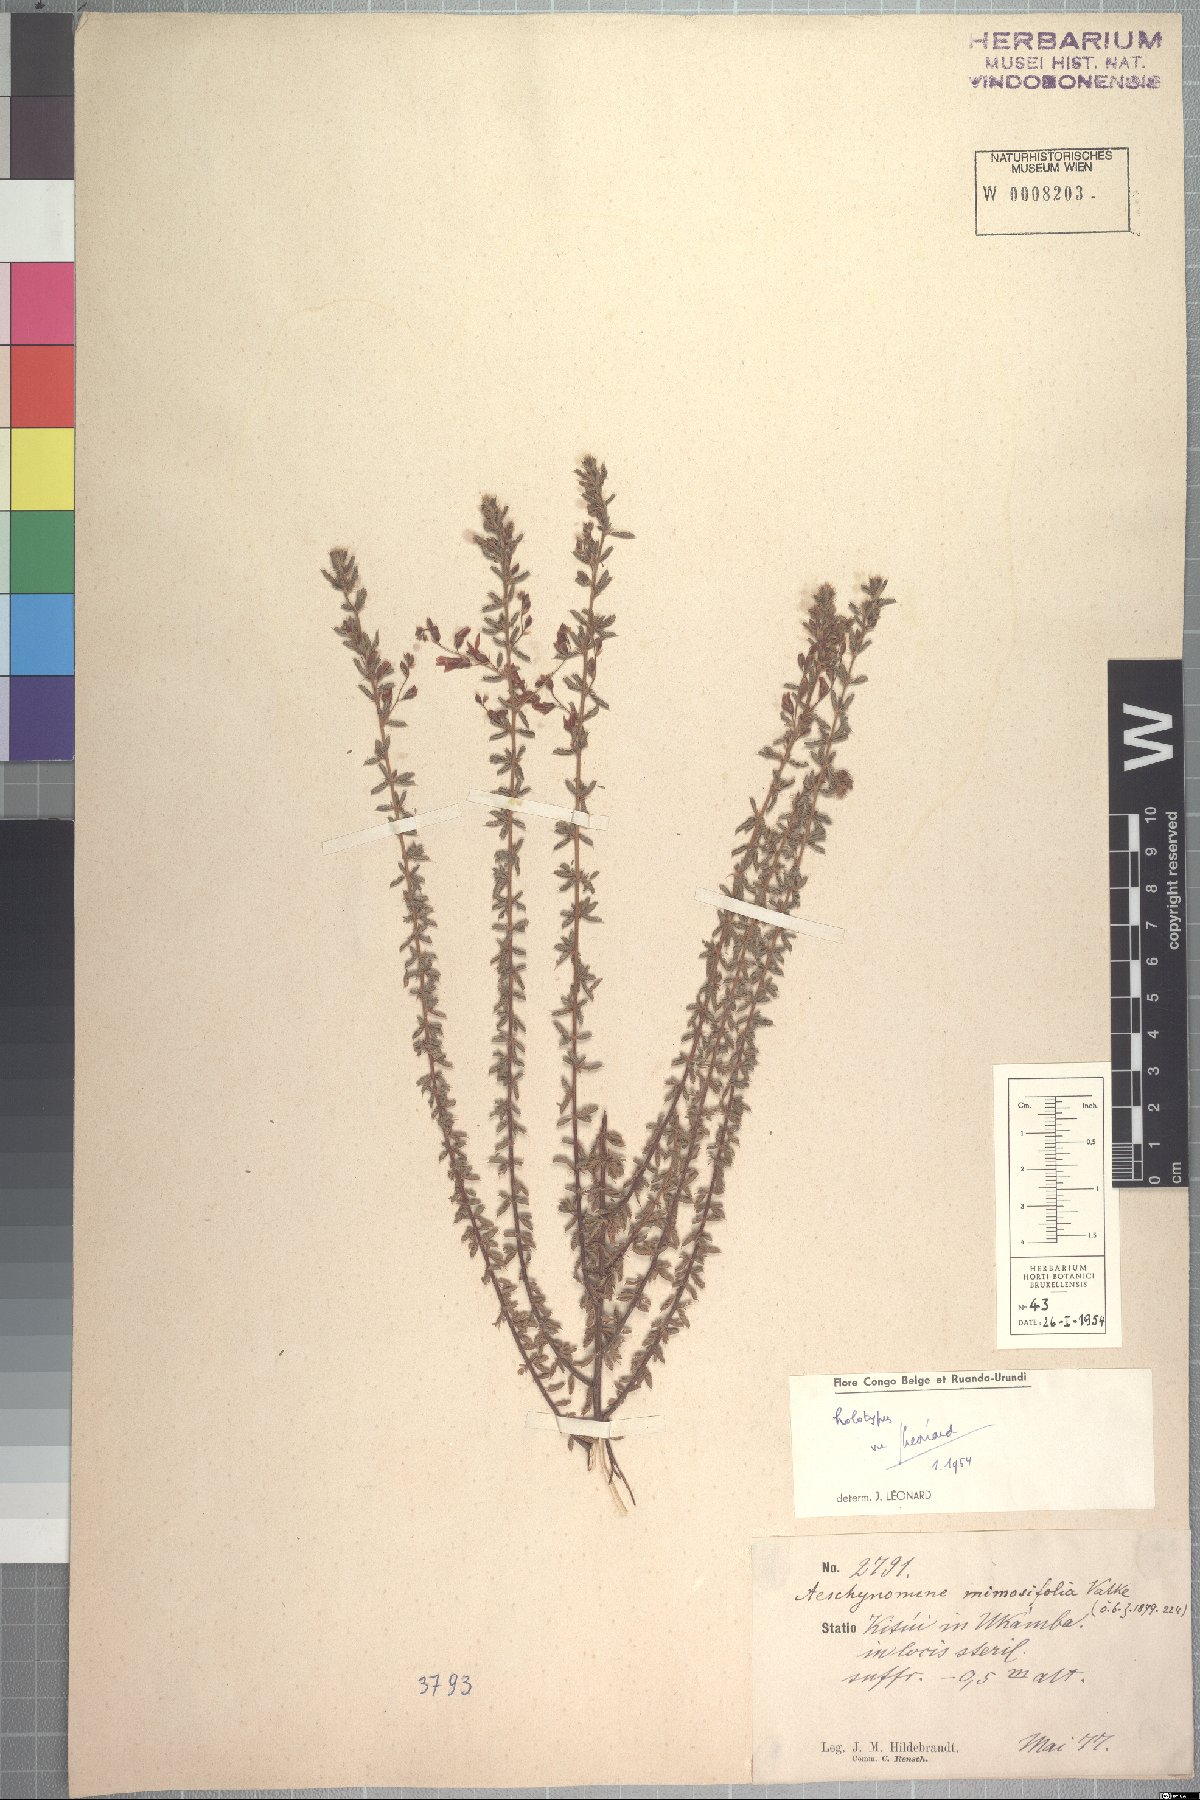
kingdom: Plantae
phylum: Tracheophyta
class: Magnoliopsida
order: Fabales
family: Fabaceae
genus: Aeschynomene
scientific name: Aeschynomene mimosifolia
